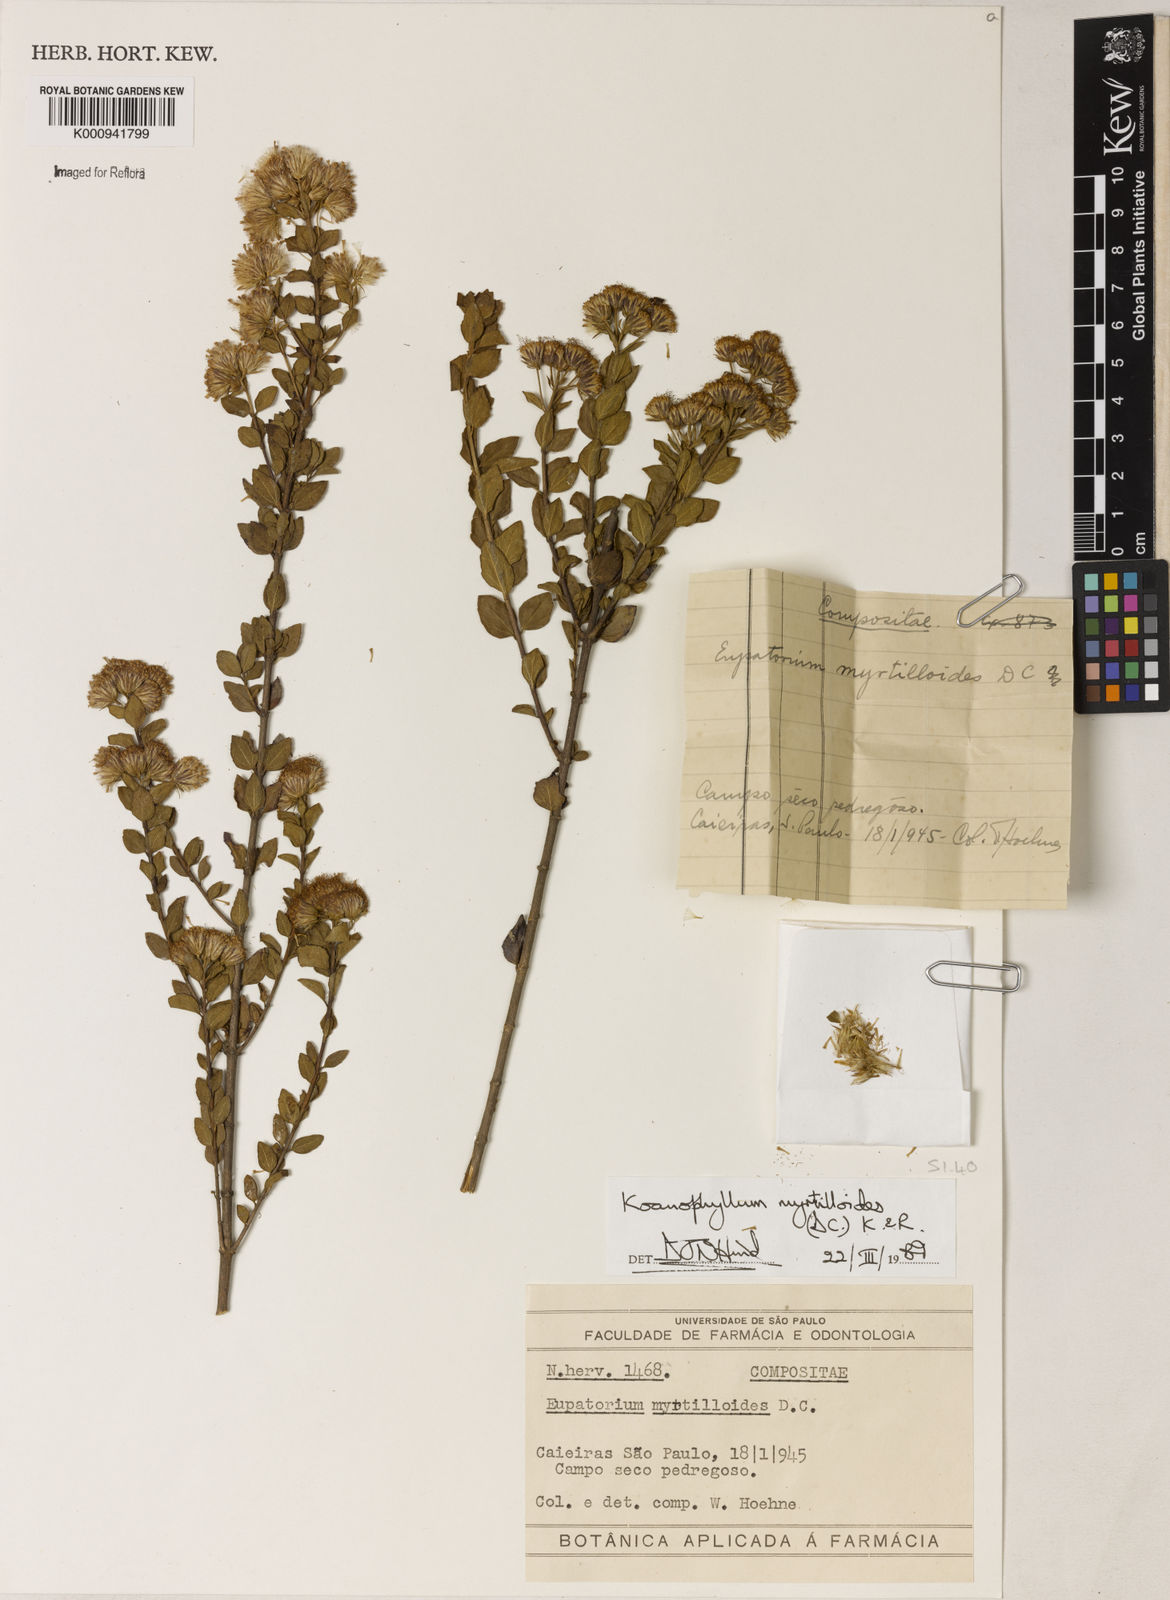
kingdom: Plantae
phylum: Tracheophyta
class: Magnoliopsida
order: Asterales
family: Asteraceae
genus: Koanophyllon
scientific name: Koanophyllon myrtilloides
